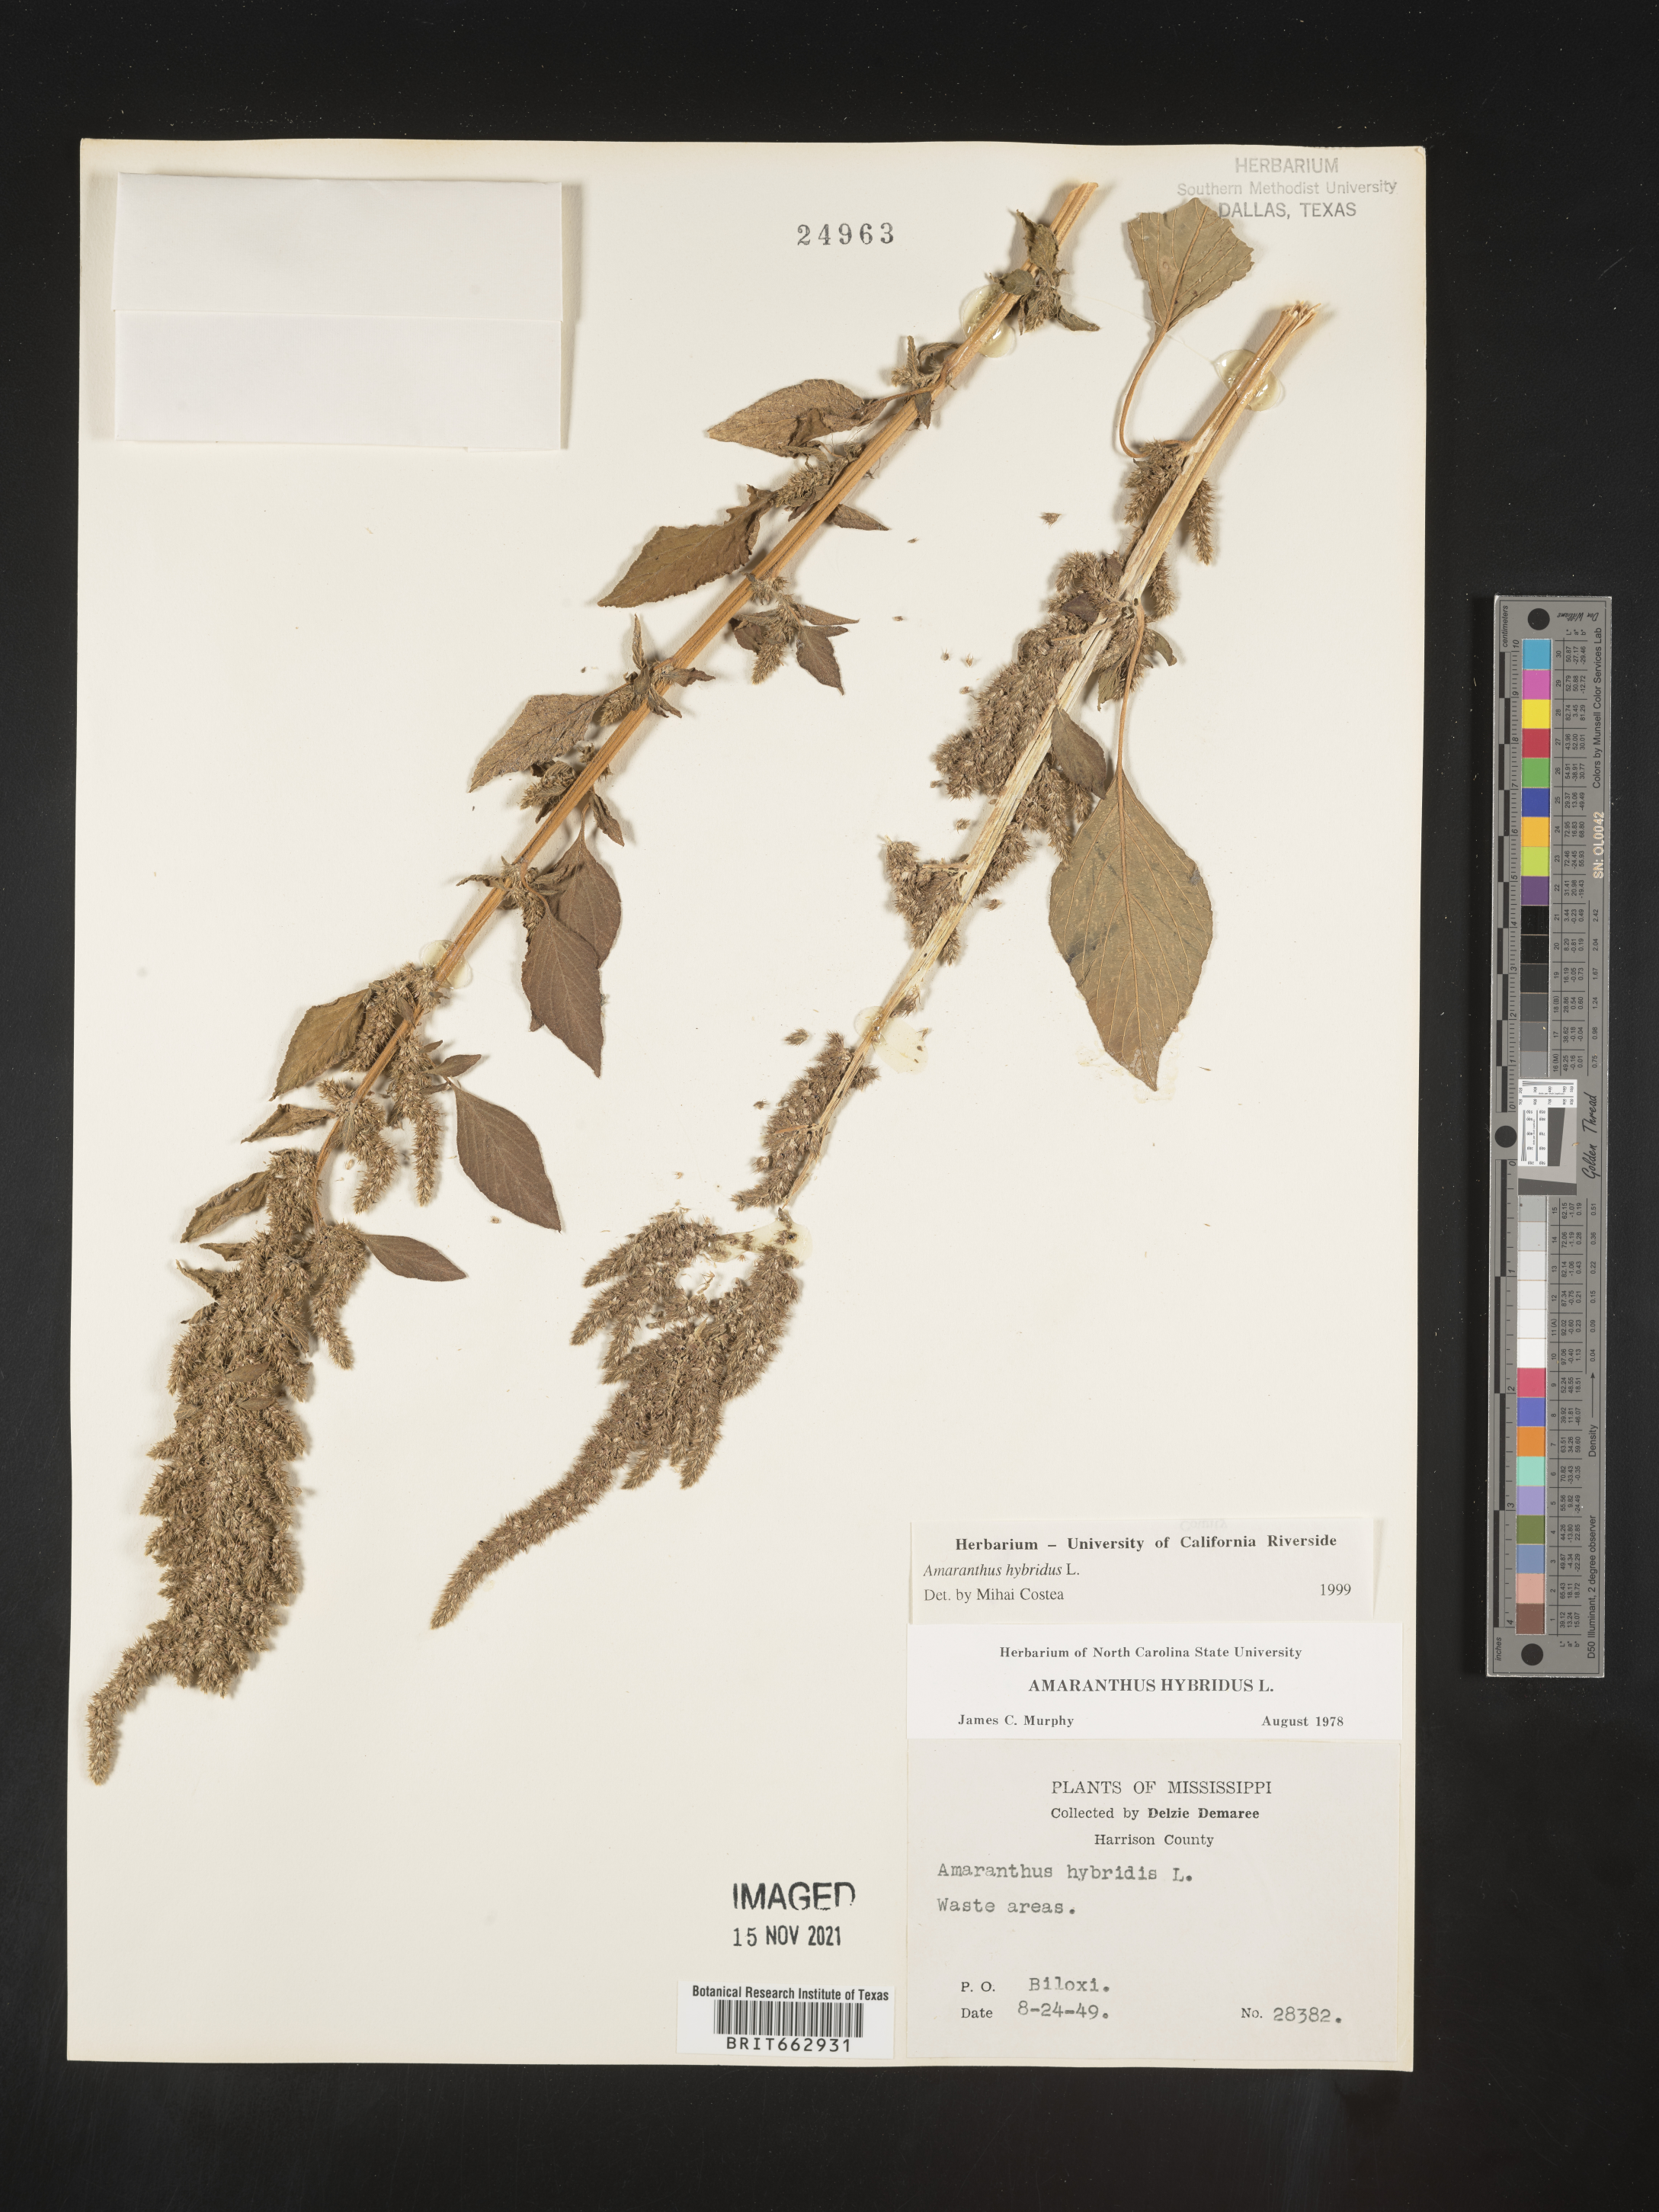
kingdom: Plantae
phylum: Tracheophyta
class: Magnoliopsida
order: Caryophyllales
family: Amaranthaceae
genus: Amaranthus
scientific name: Amaranthus hybridus
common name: Green amaranth
